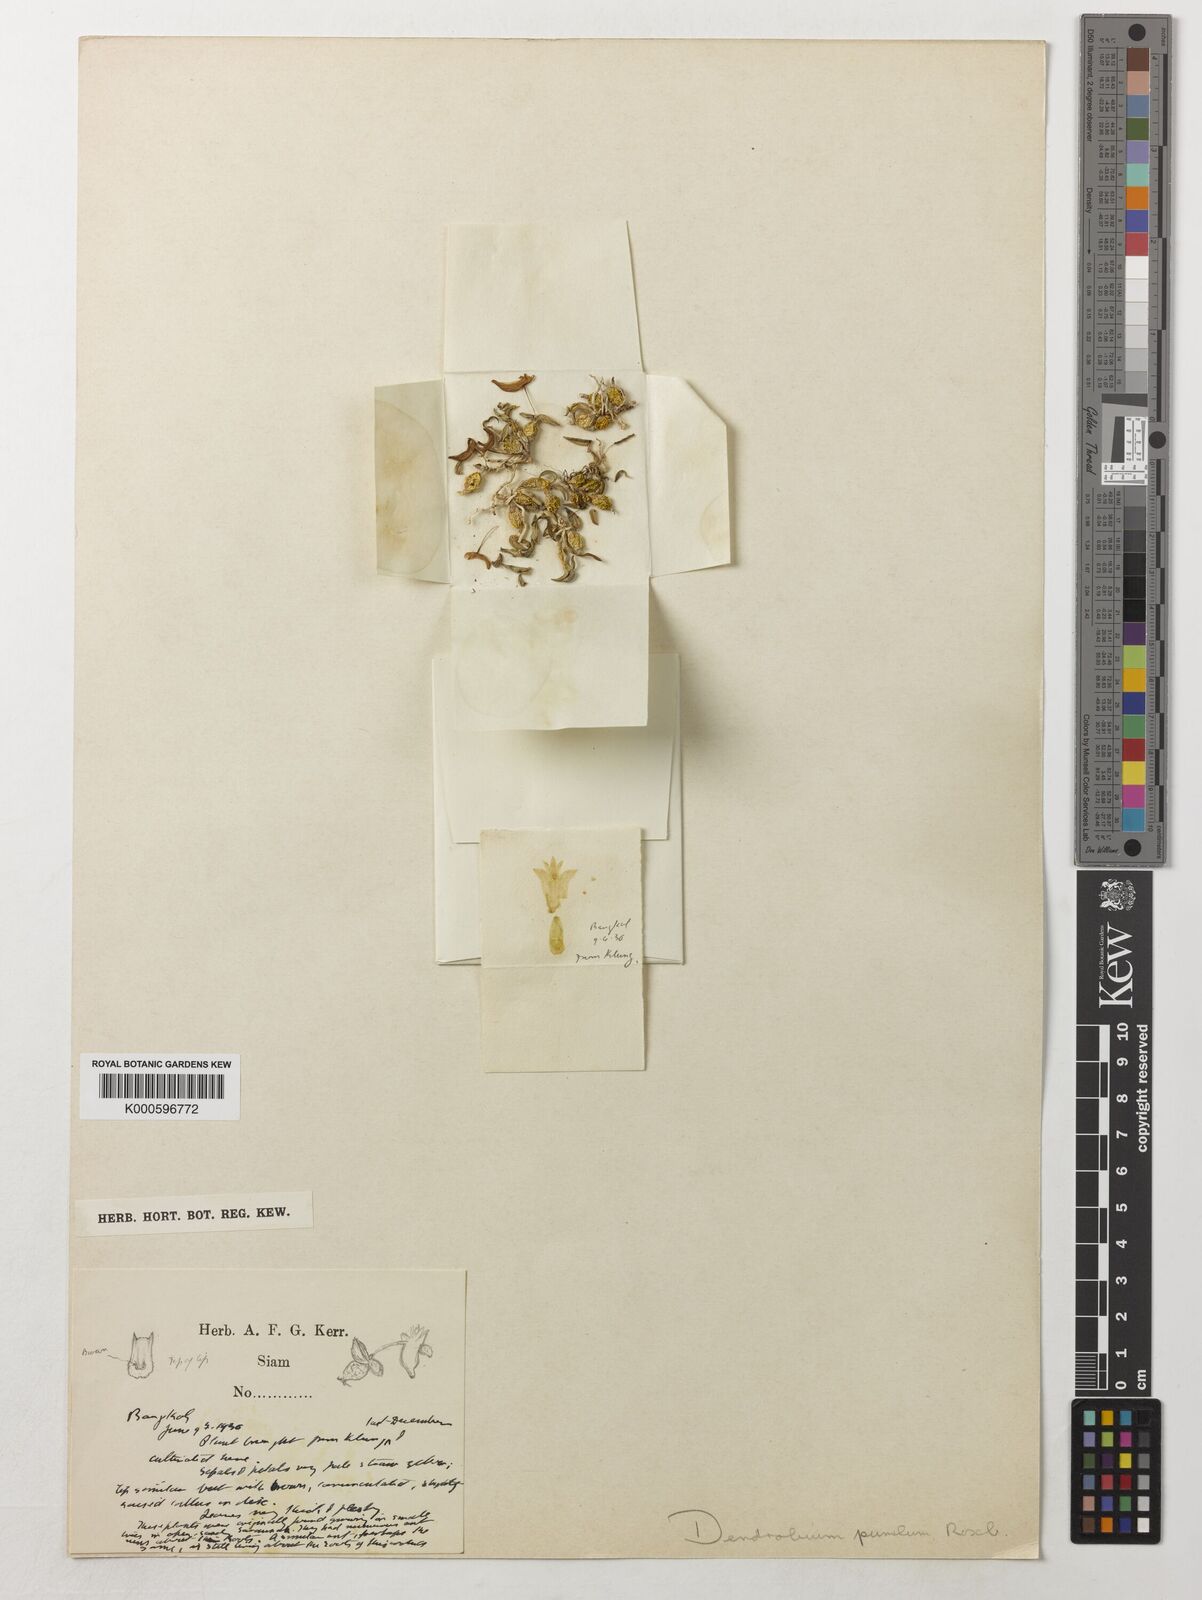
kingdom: Plantae
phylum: Tracheophyta
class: Liliopsida
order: Asparagales
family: Orchidaceae
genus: Dendrobium
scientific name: Dendrobium pachyphyllum
